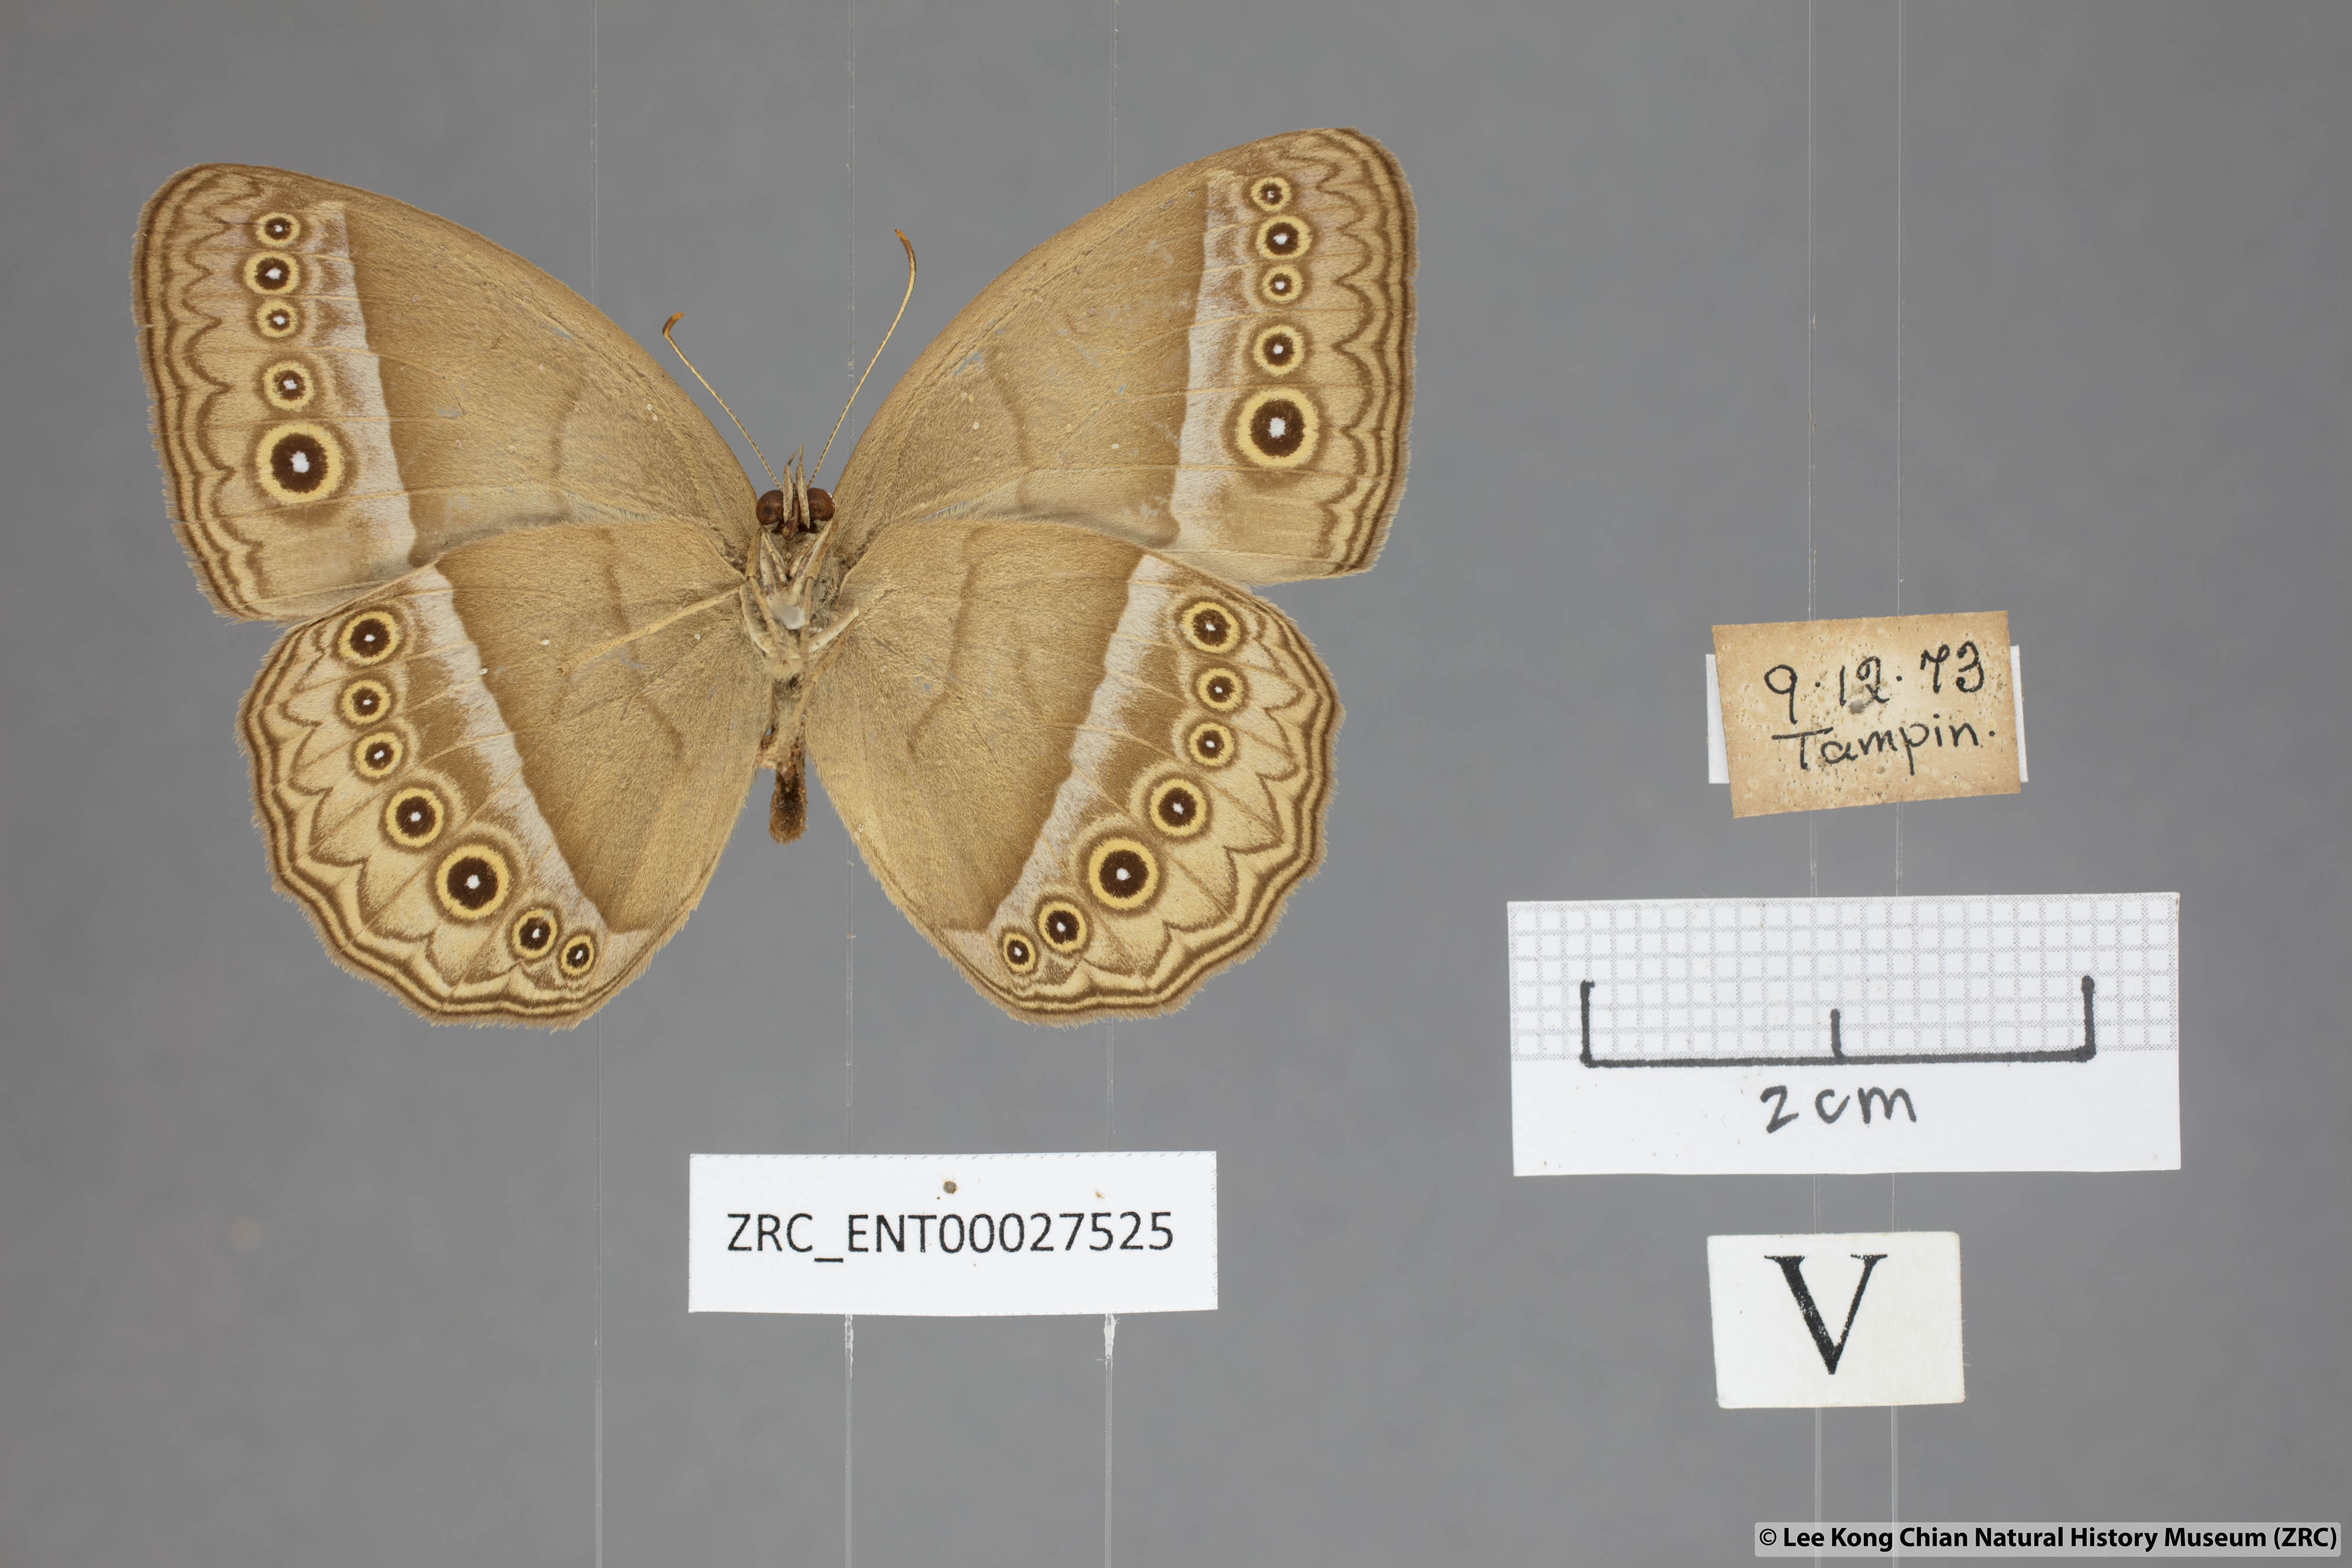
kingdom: Animalia
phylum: Arthropoda
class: Insecta
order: Lepidoptera
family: Nymphalidae
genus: Mycalesis
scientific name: Mycalesis orseis
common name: Purple bushbrown
